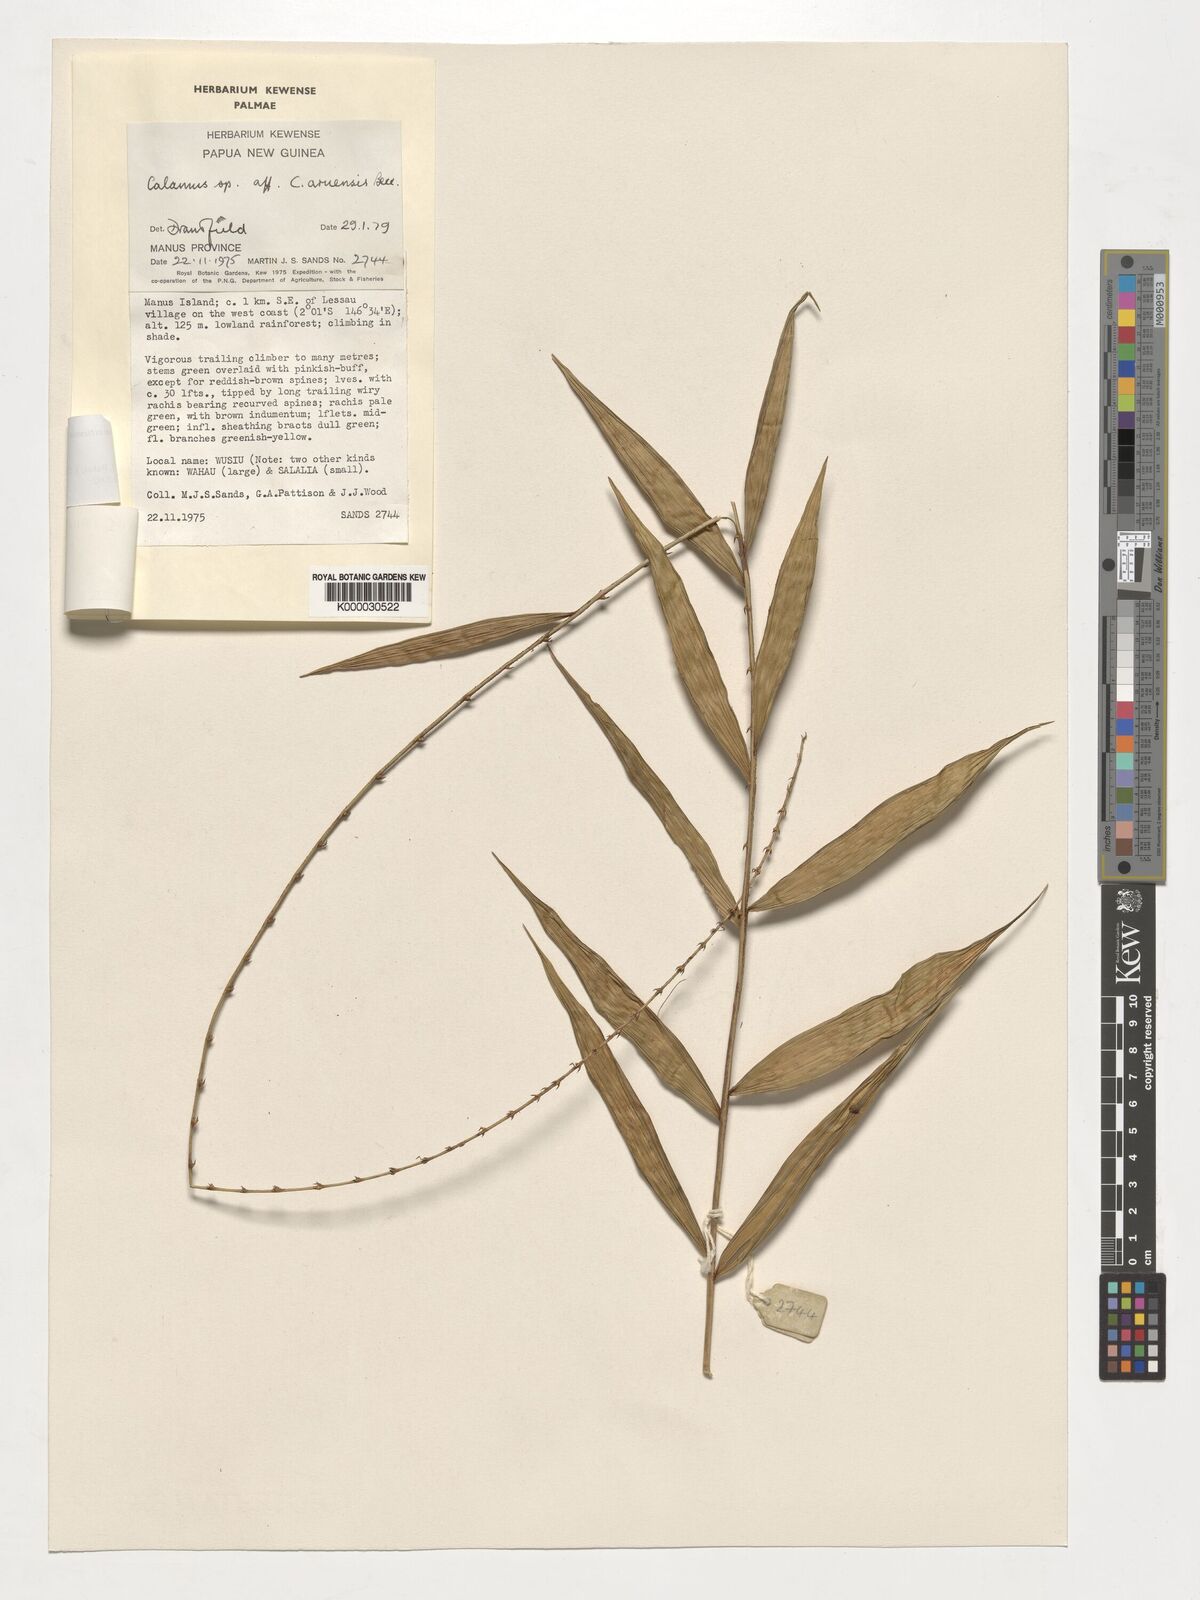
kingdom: Plantae
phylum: Tracheophyta
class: Liliopsida
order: Arecales
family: Arecaceae
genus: Calamus
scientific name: Calamus vitiensis
